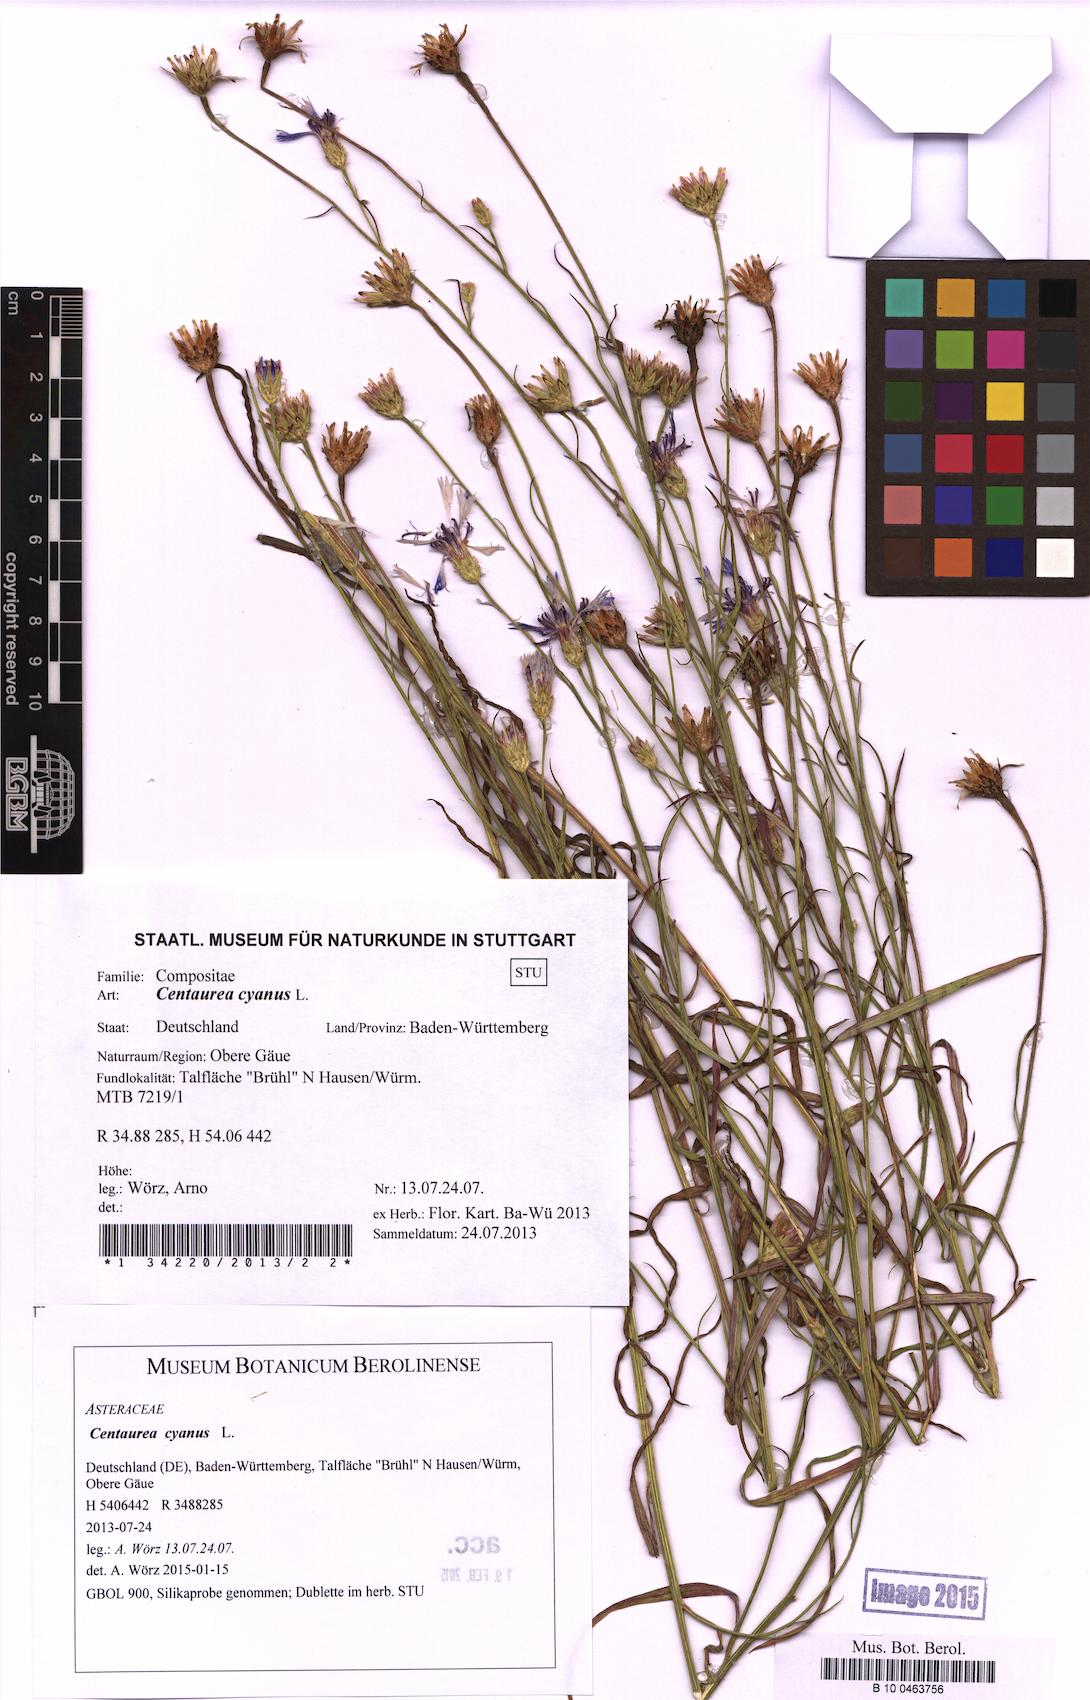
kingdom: Plantae
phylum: Tracheophyta
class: Magnoliopsida
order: Asterales
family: Asteraceae
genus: Centaurea
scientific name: Centaurea cyanus
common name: Cornflower
